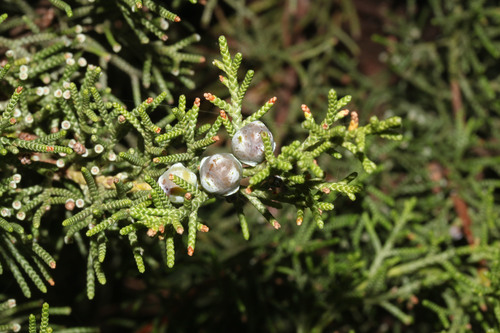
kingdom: Plantae
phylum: Tracheophyta
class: Pinopsida
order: Pinales
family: Cupressaceae
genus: Juniperus
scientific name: Juniperus phoenicea
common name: Phoenician juniper
